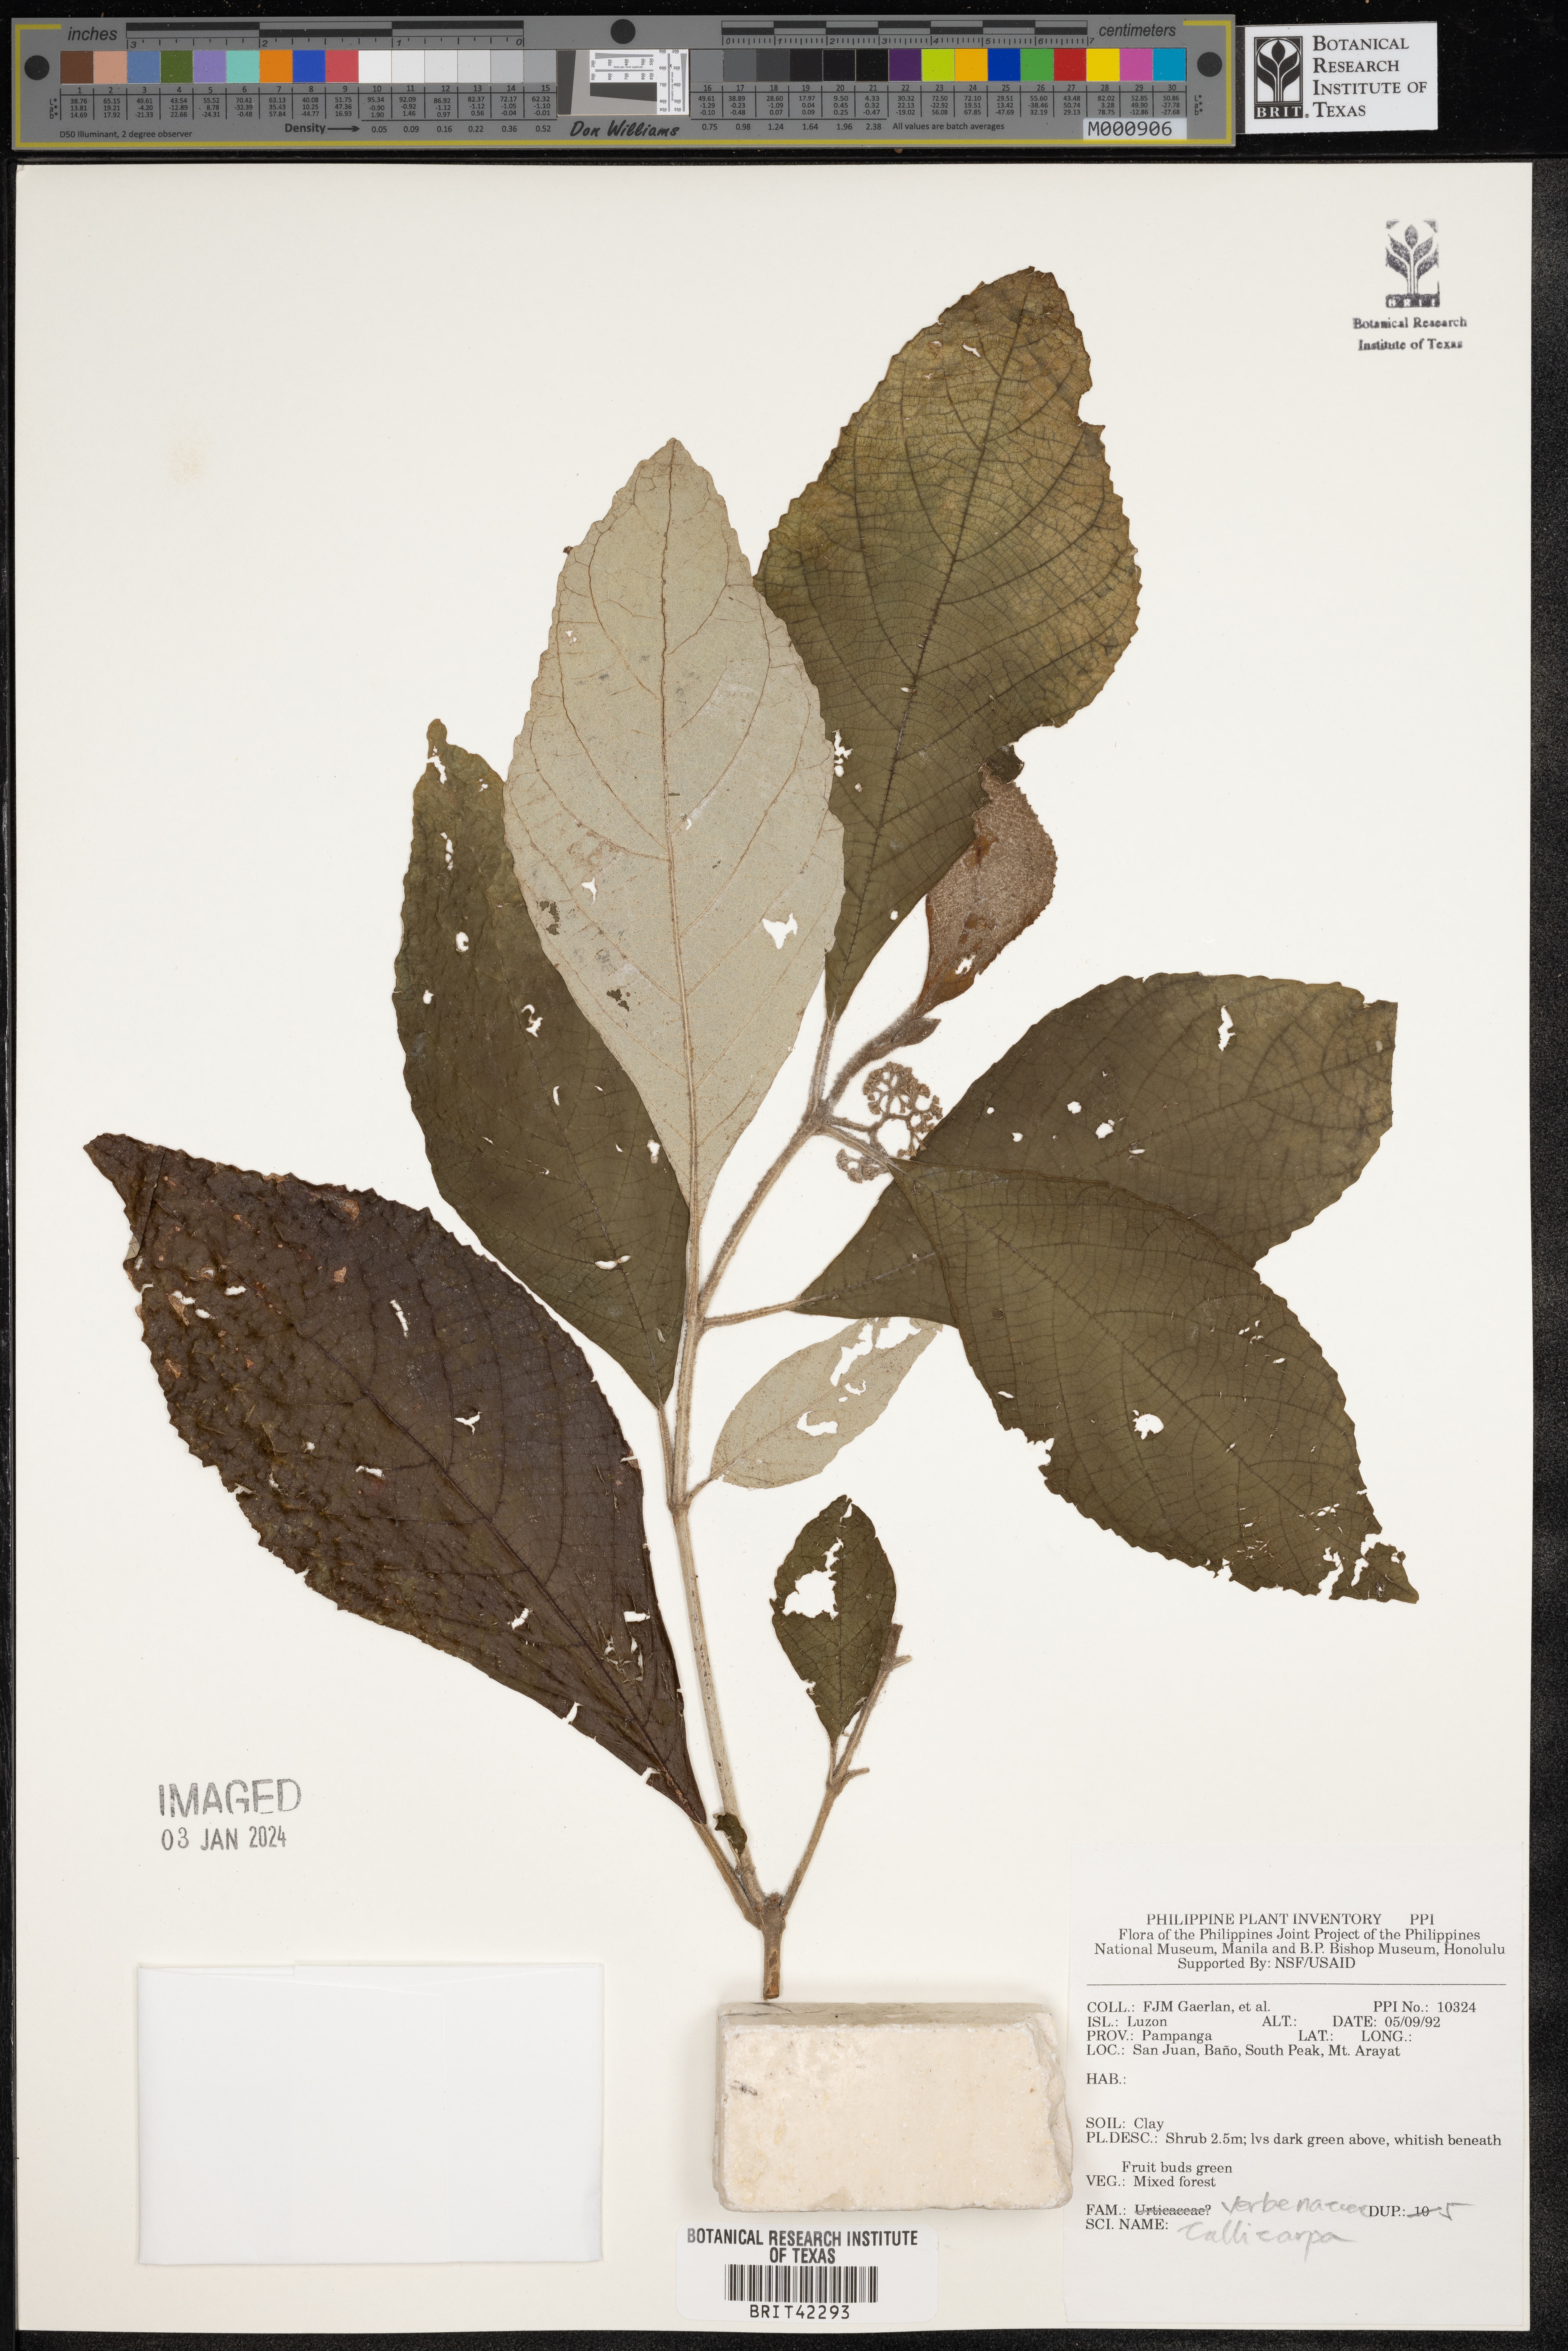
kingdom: Plantae
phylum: Tracheophyta
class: Magnoliopsida
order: Lamiales
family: Lamiaceae
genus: Callicarpa
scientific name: Callicarpa
